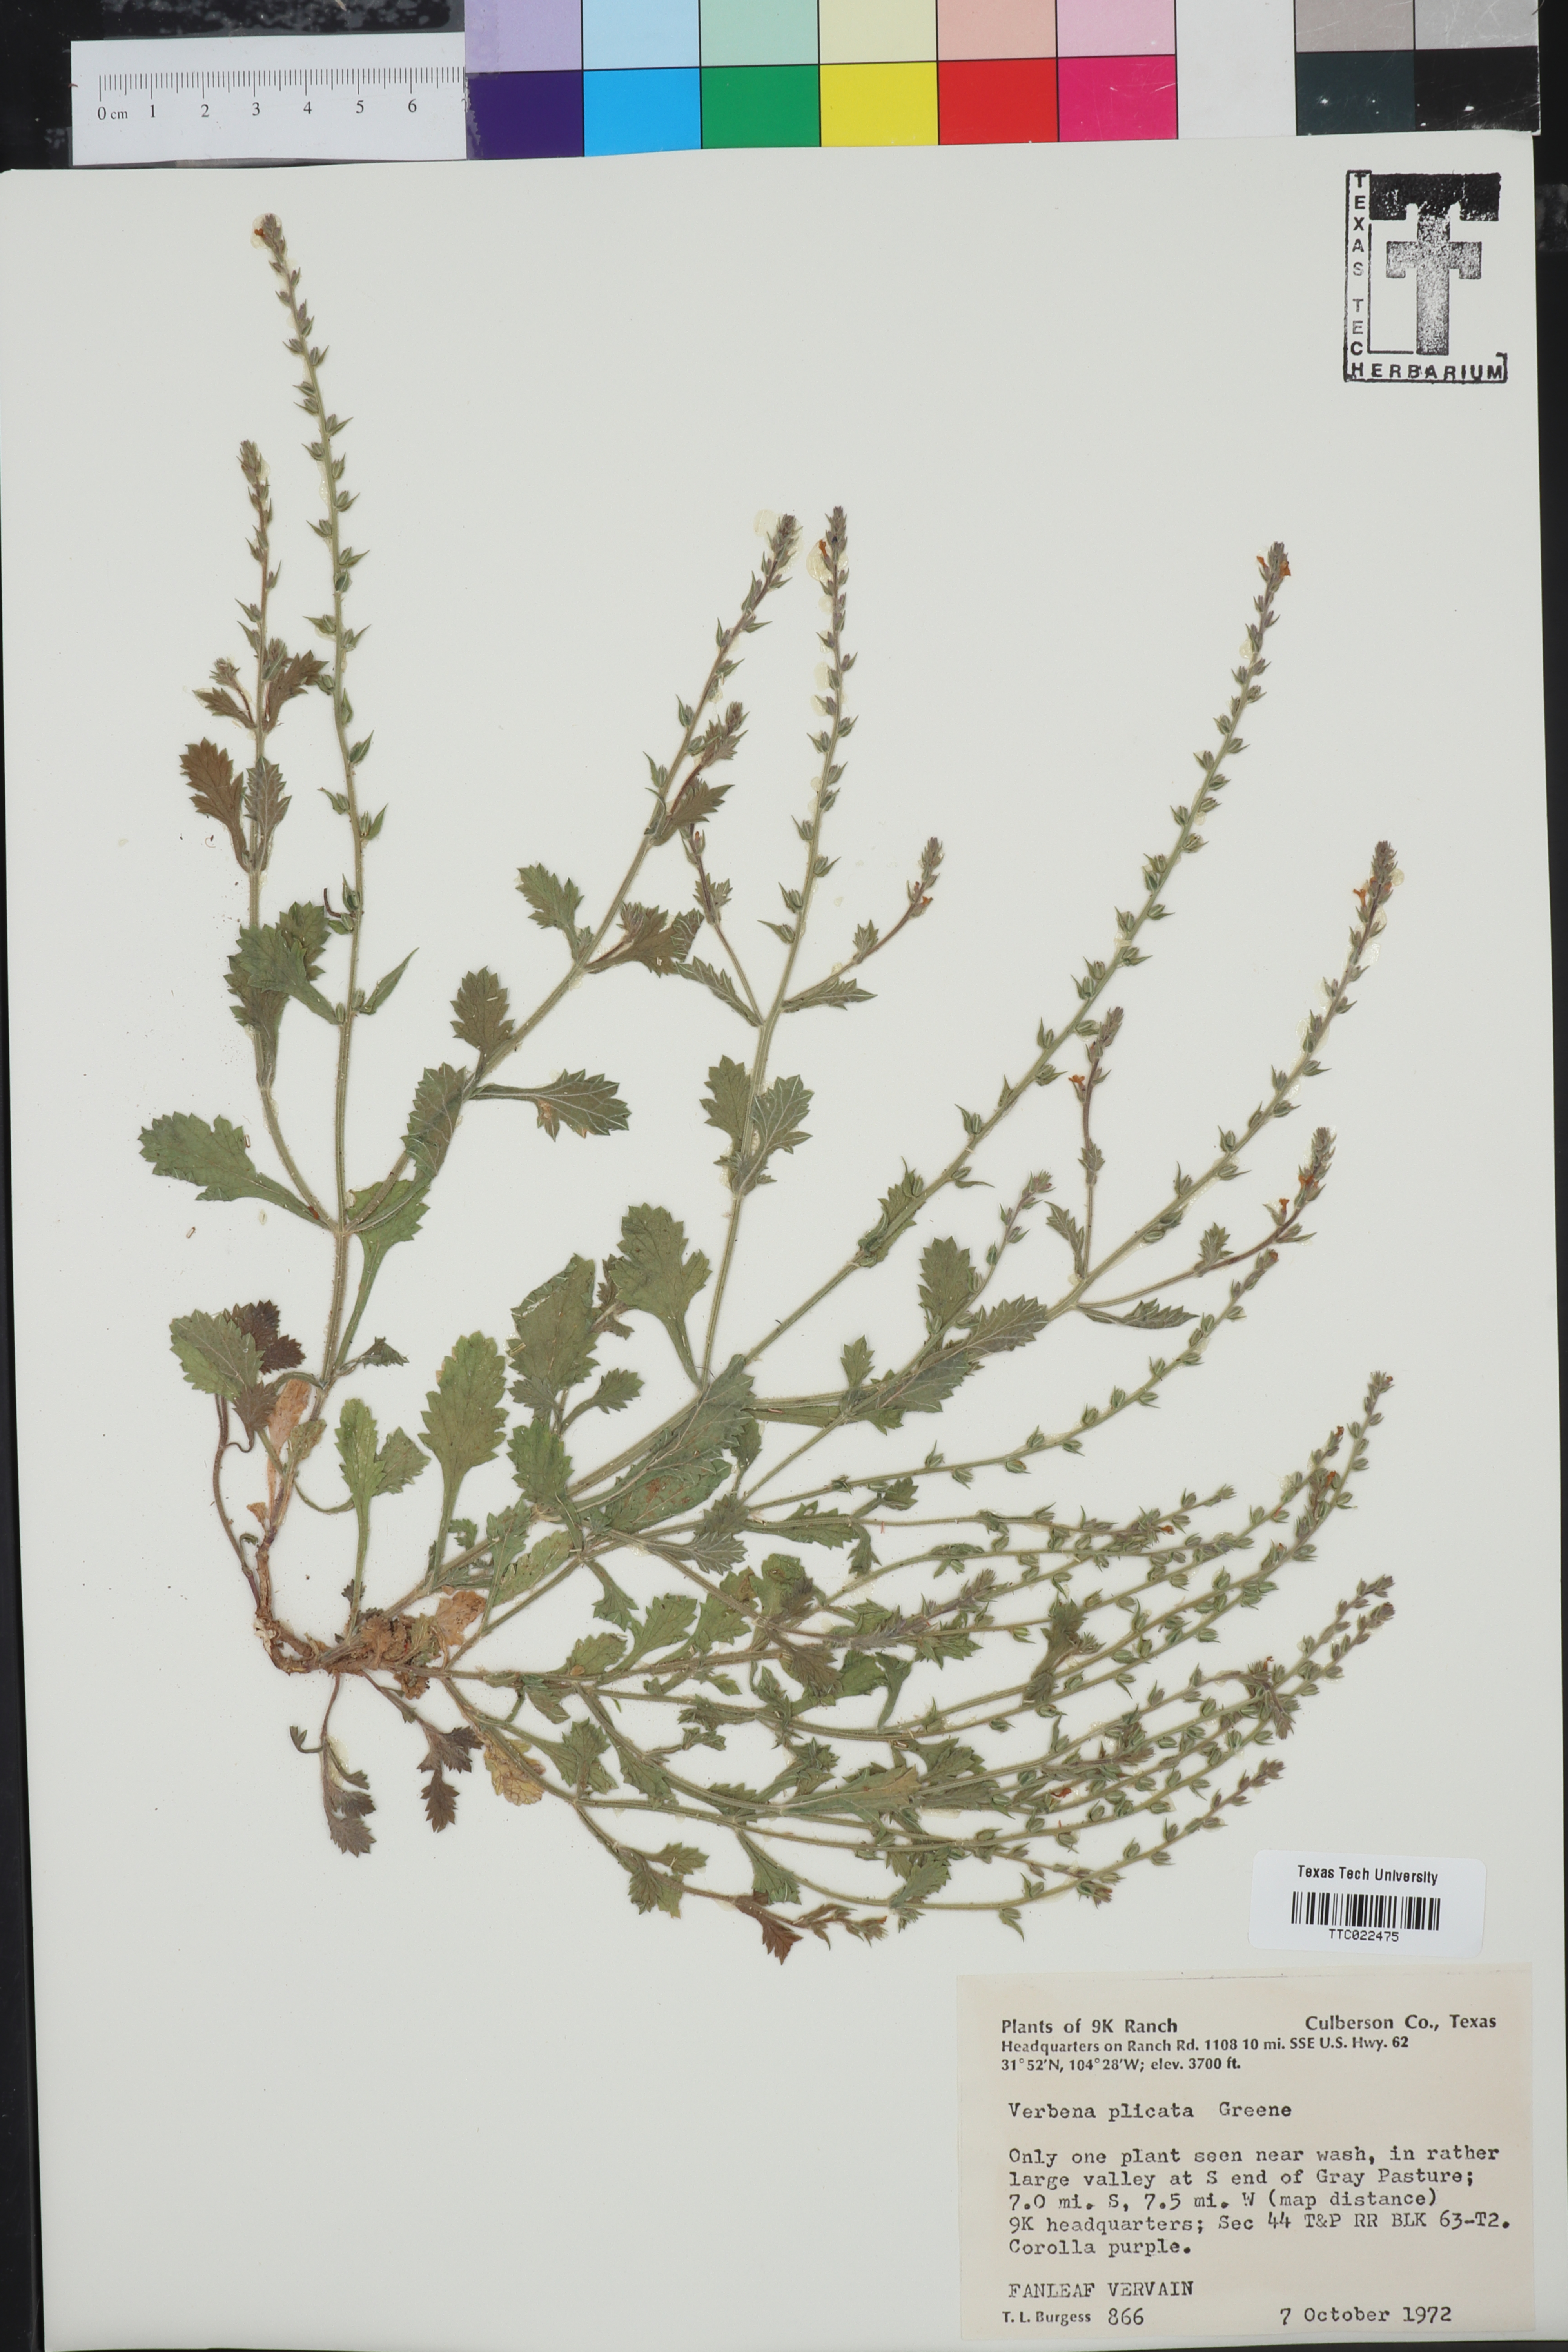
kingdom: Plantae
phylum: Tracheophyta
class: Magnoliopsida
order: Lamiales
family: Verbenaceae
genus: Verbena
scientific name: Verbena plicata
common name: Fan-leaf vervain
